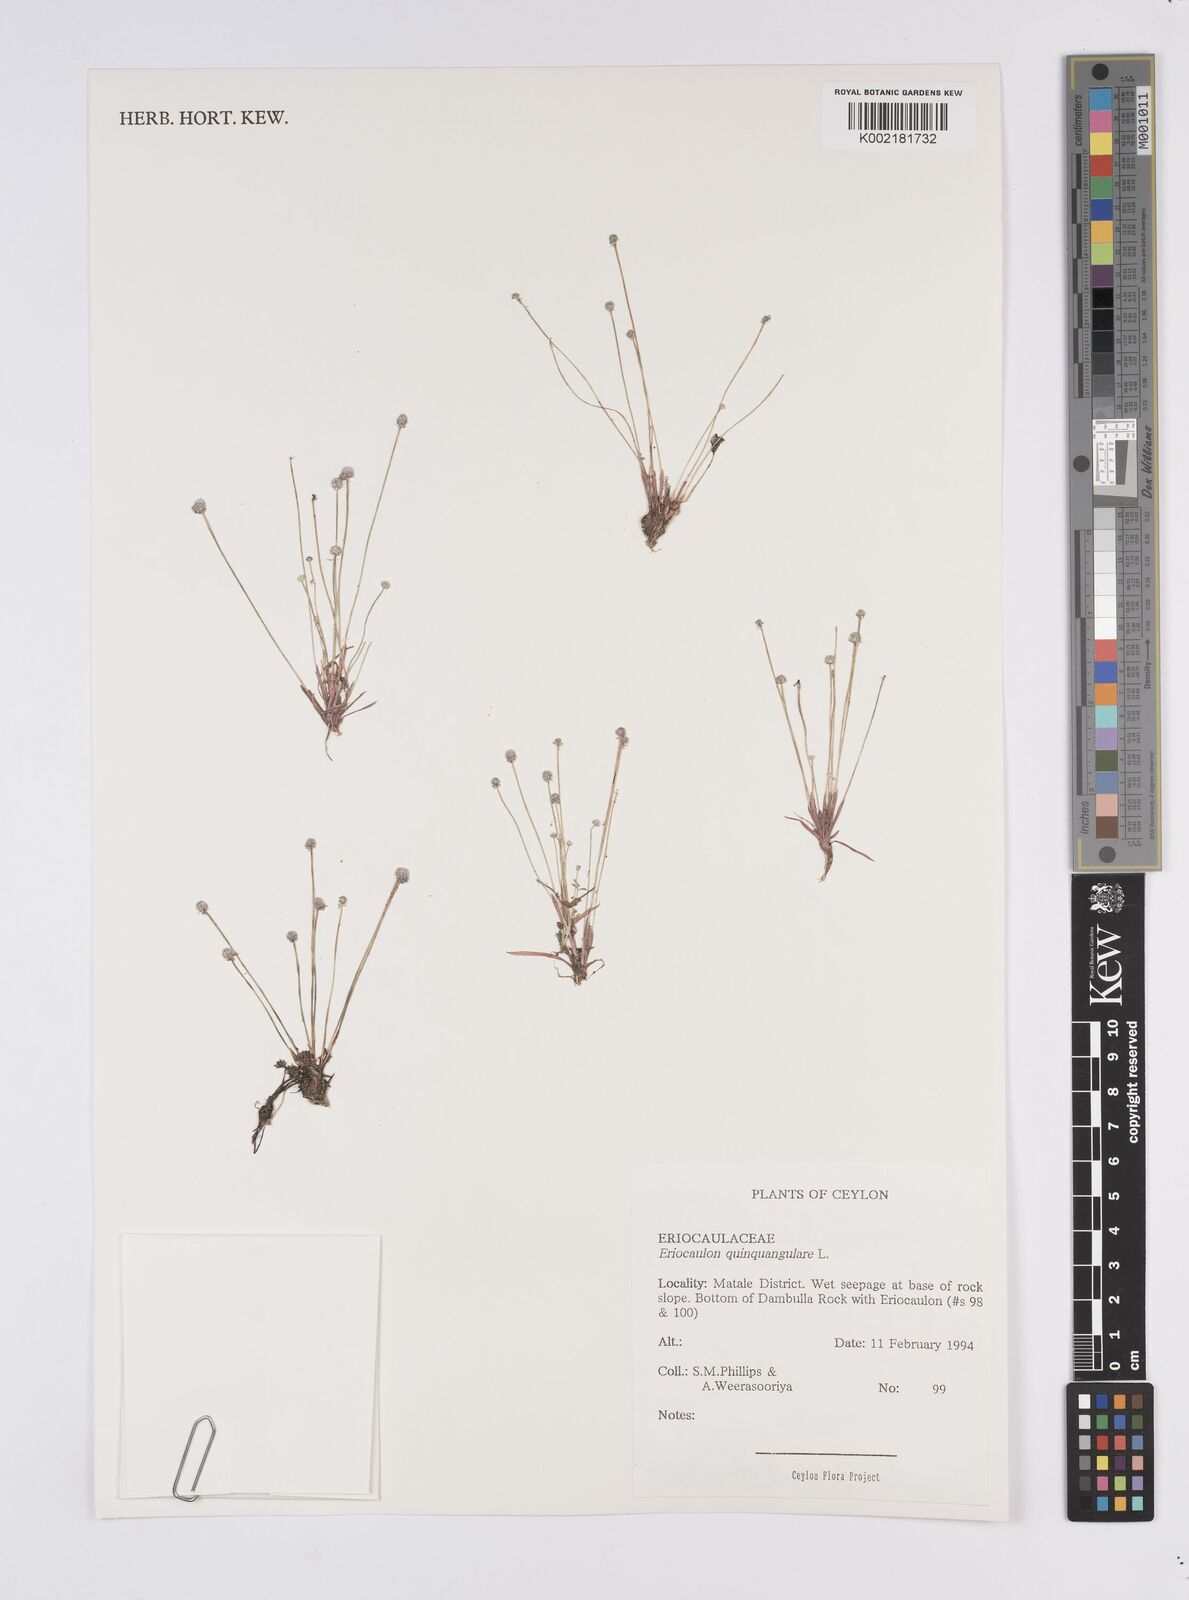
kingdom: Plantae
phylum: Tracheophyta
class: Liliopsida
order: Poales
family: Eriocaulaceae
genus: Eriocaulon
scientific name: Eriocaulon quinquangulare
